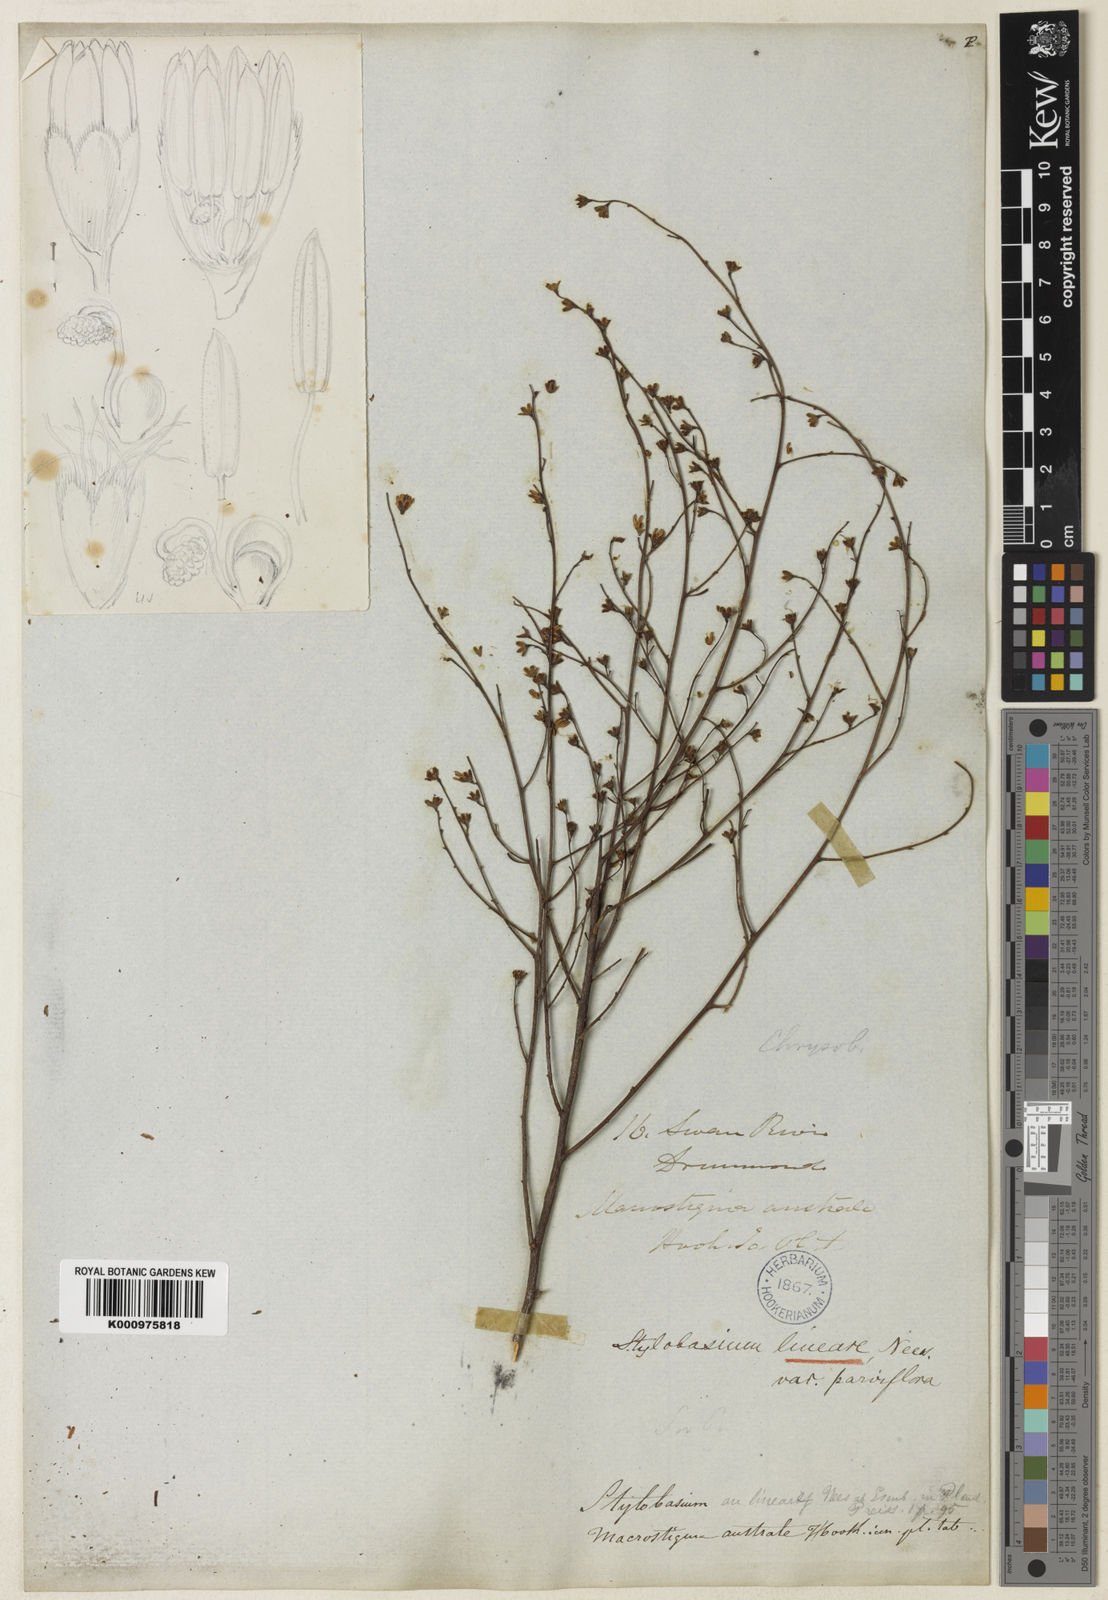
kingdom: Plantae
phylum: Tracheophyta
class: Magnoliopsida
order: Fabales
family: Surianaceae
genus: Stylobasium
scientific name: Stylobasium
